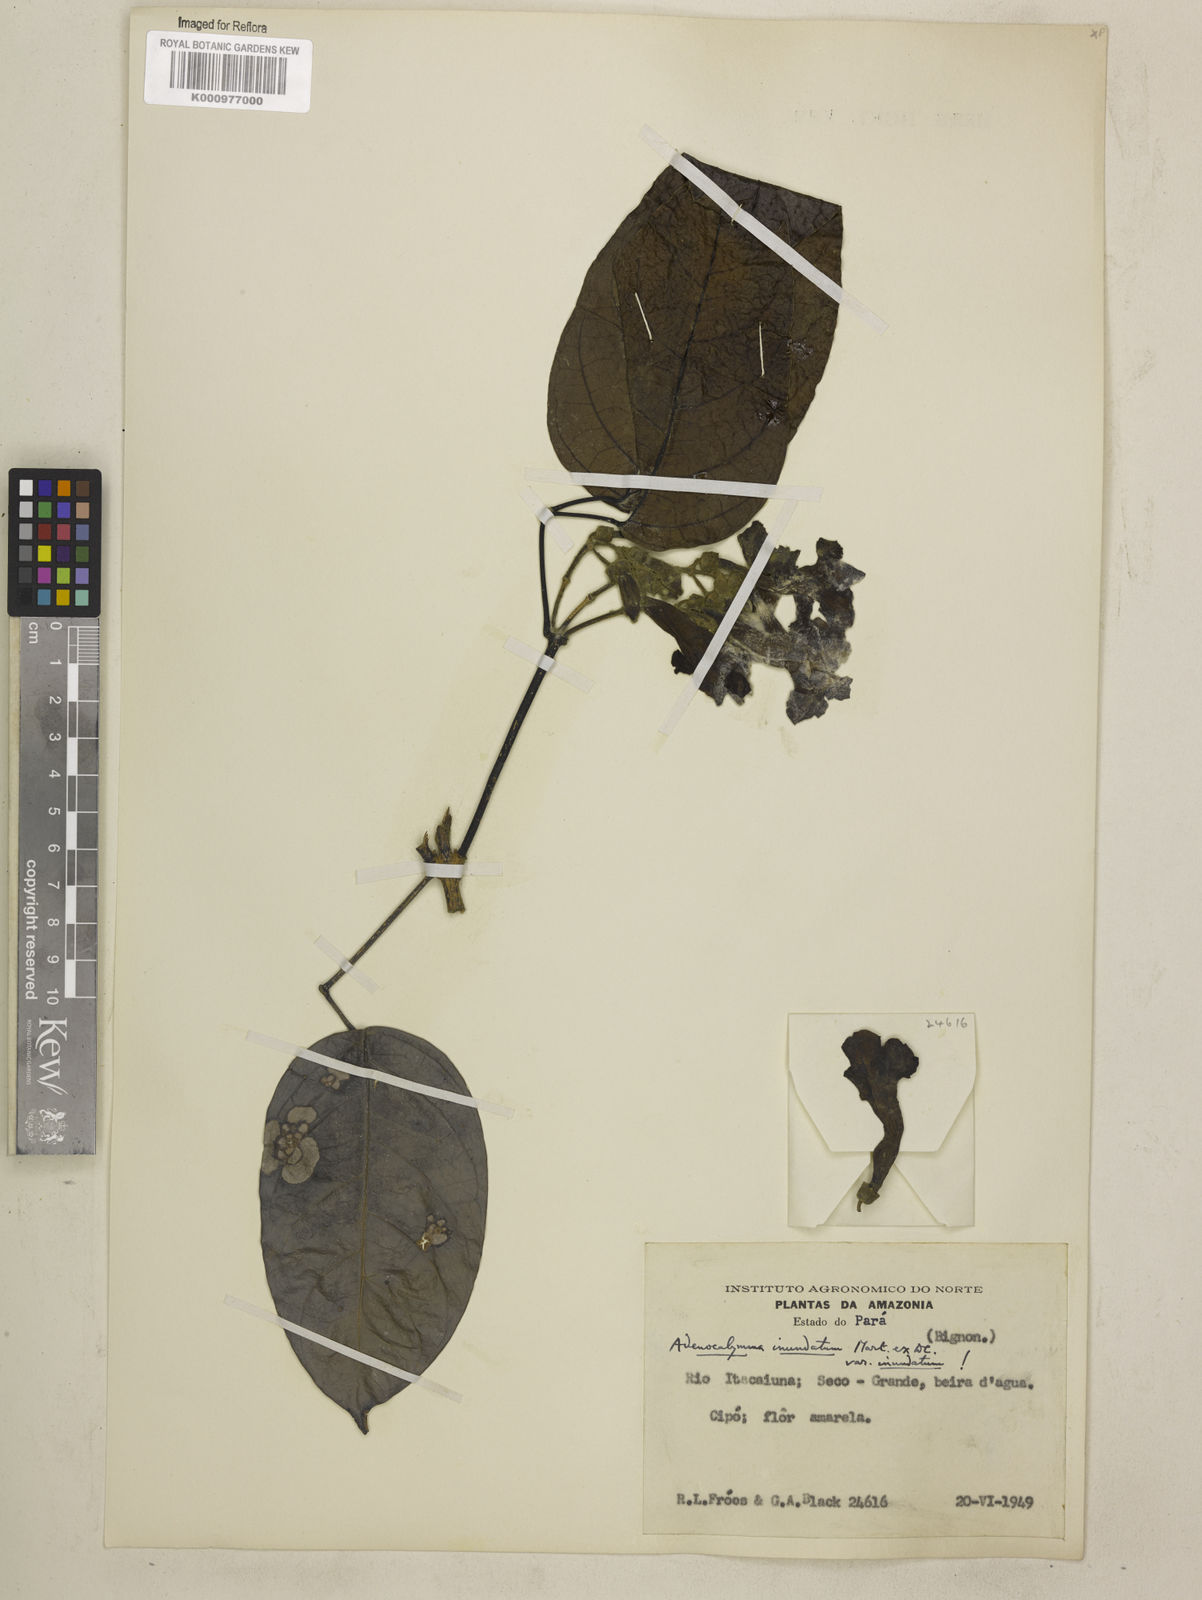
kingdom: Plantae
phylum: Tracheophyta
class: Magnoliopsida
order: Lamiales
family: Bignoniaceae
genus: Adenocalymma
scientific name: Adenocalymma inundatum
